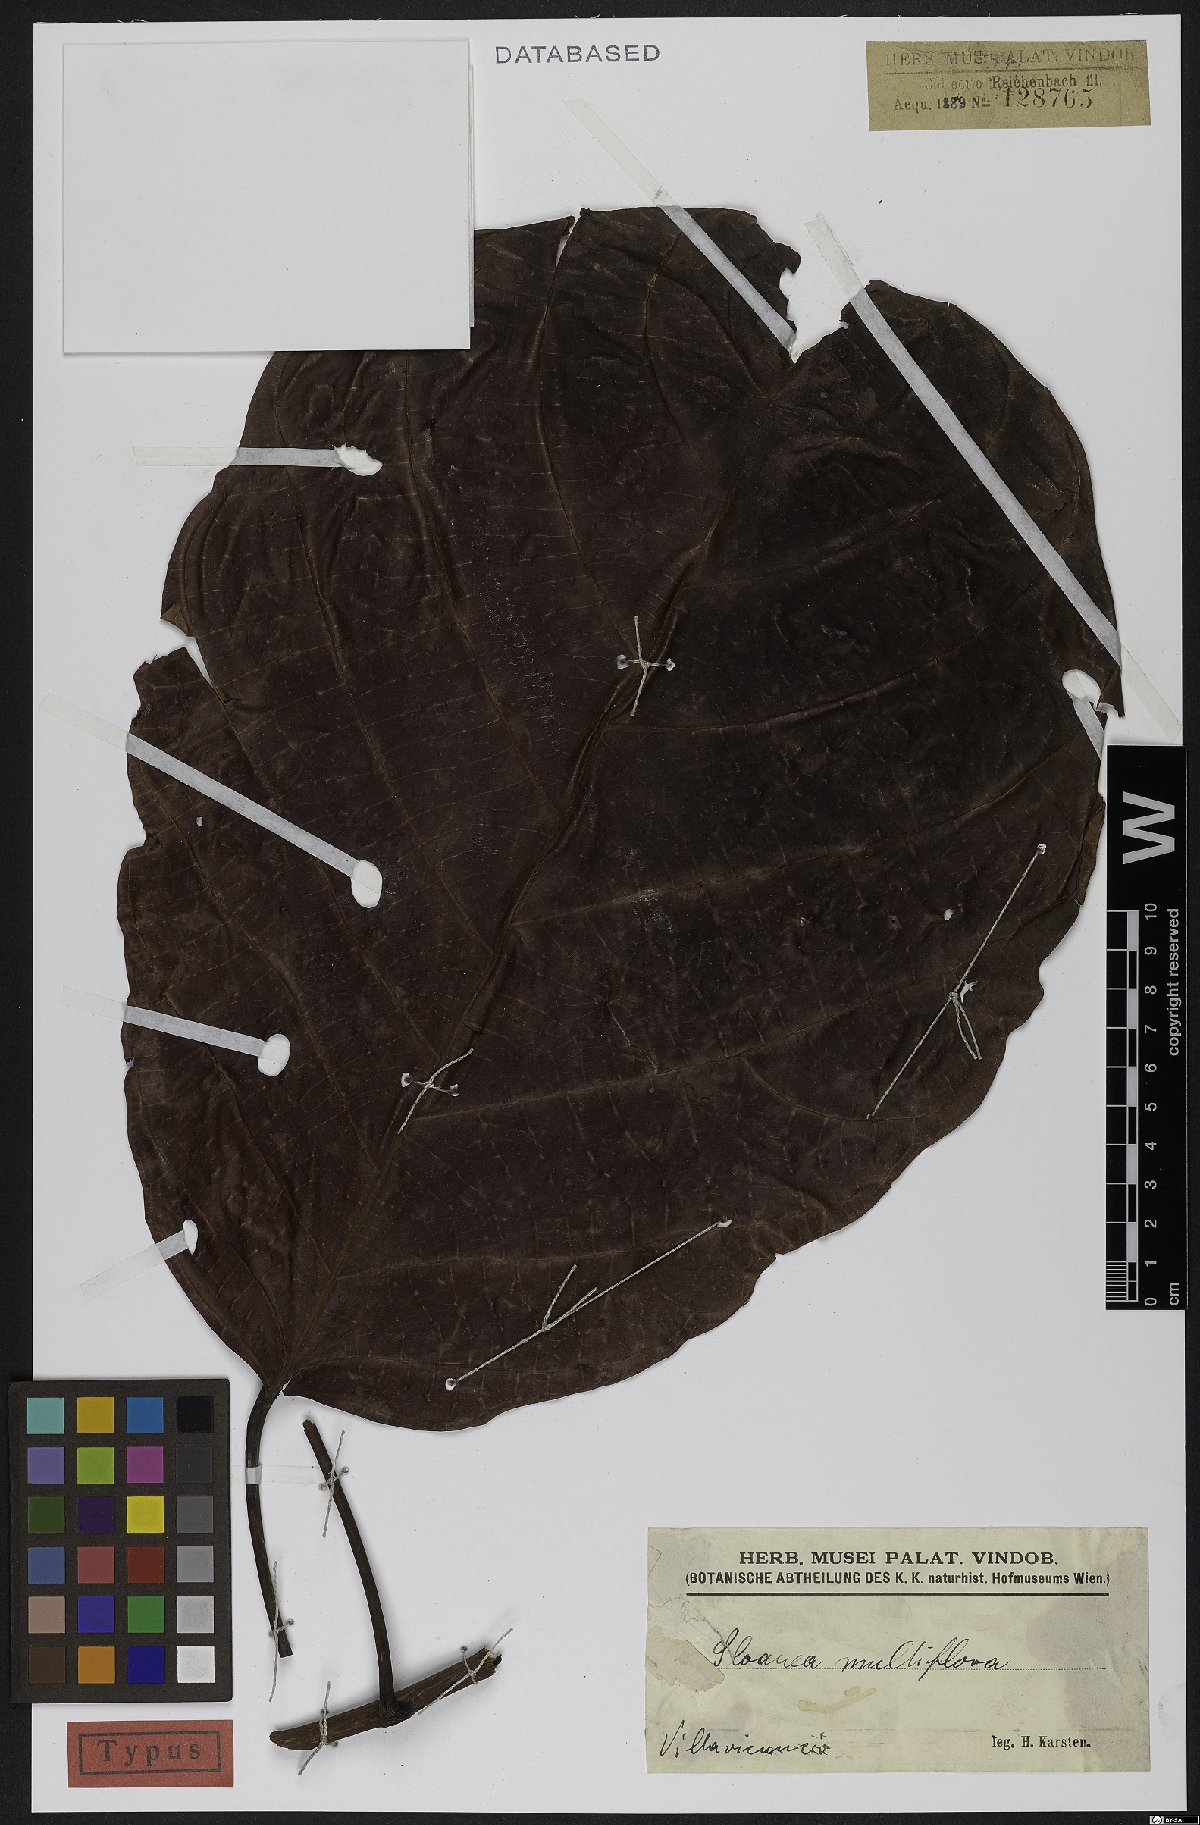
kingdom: Plantae
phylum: Tracheophyta
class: Magnoliopsida
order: Oxalidales
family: Elaeocarpaceae
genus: Sloanea
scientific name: Sloanea castanocarpa
